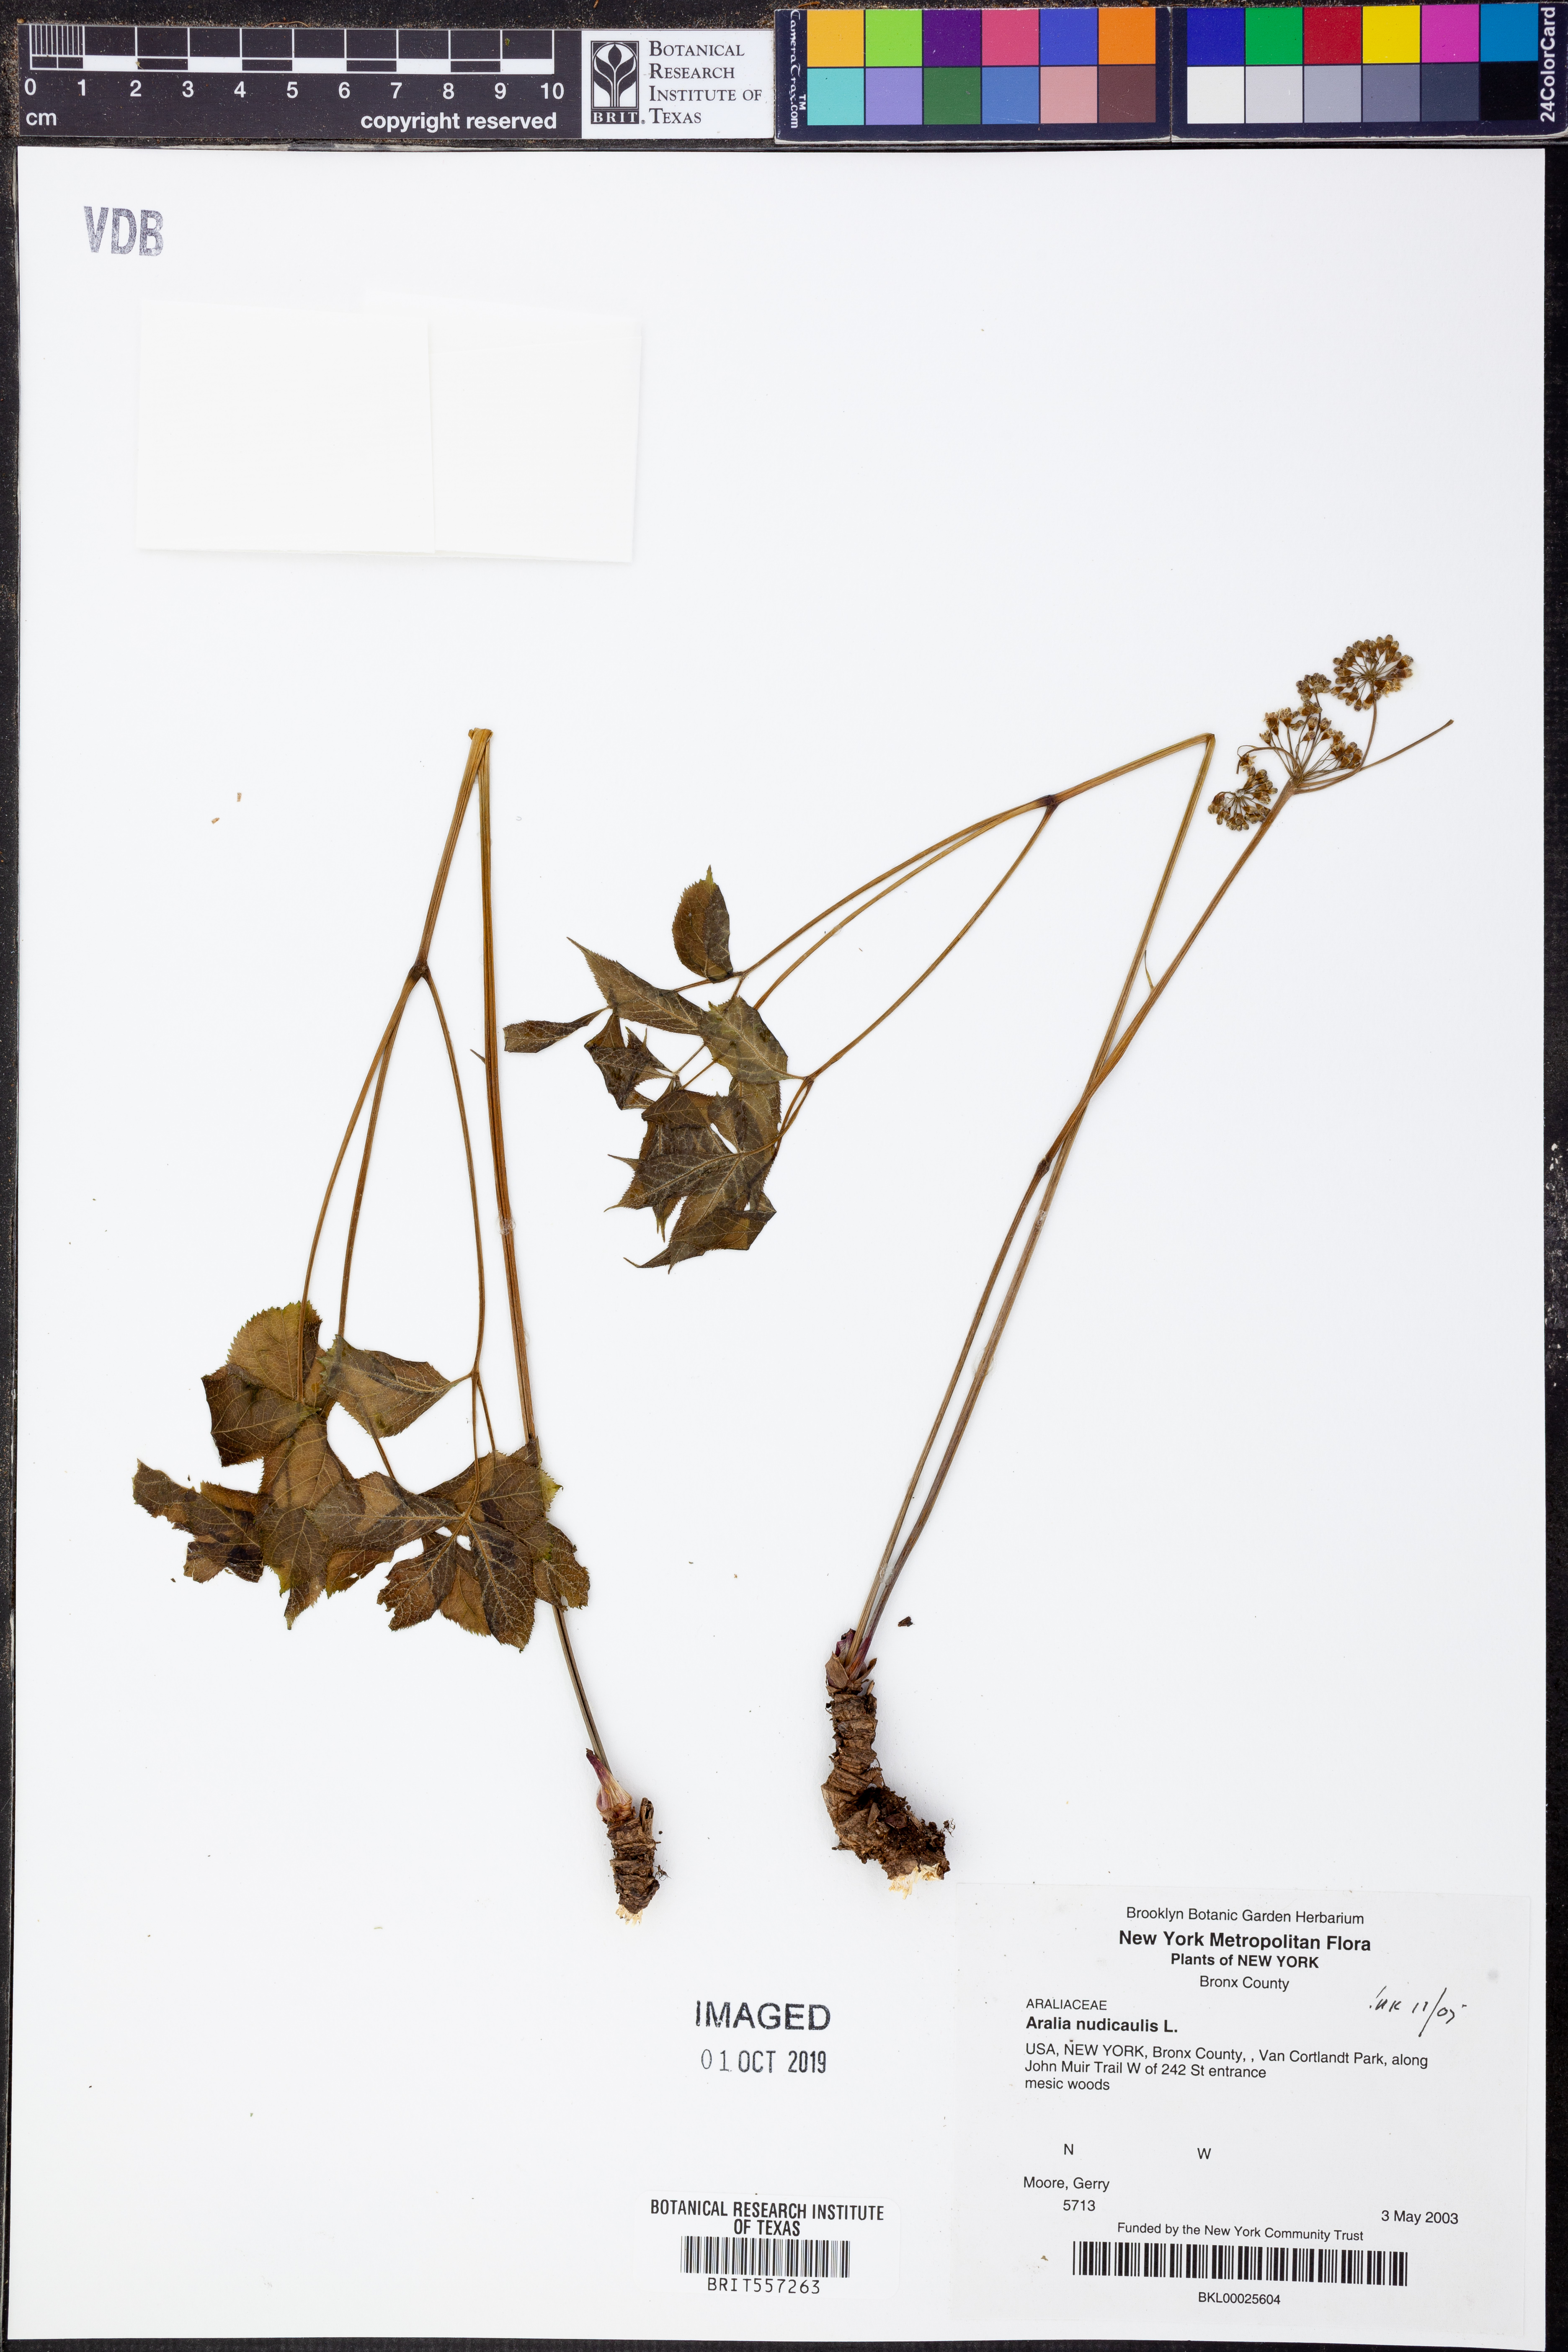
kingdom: Plantae
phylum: Tracheophyta
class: Magnoliopsida
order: Apiales
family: Araliaceae
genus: Aralia
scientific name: Aralia nudicaulis
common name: Wild sarsaparilla
